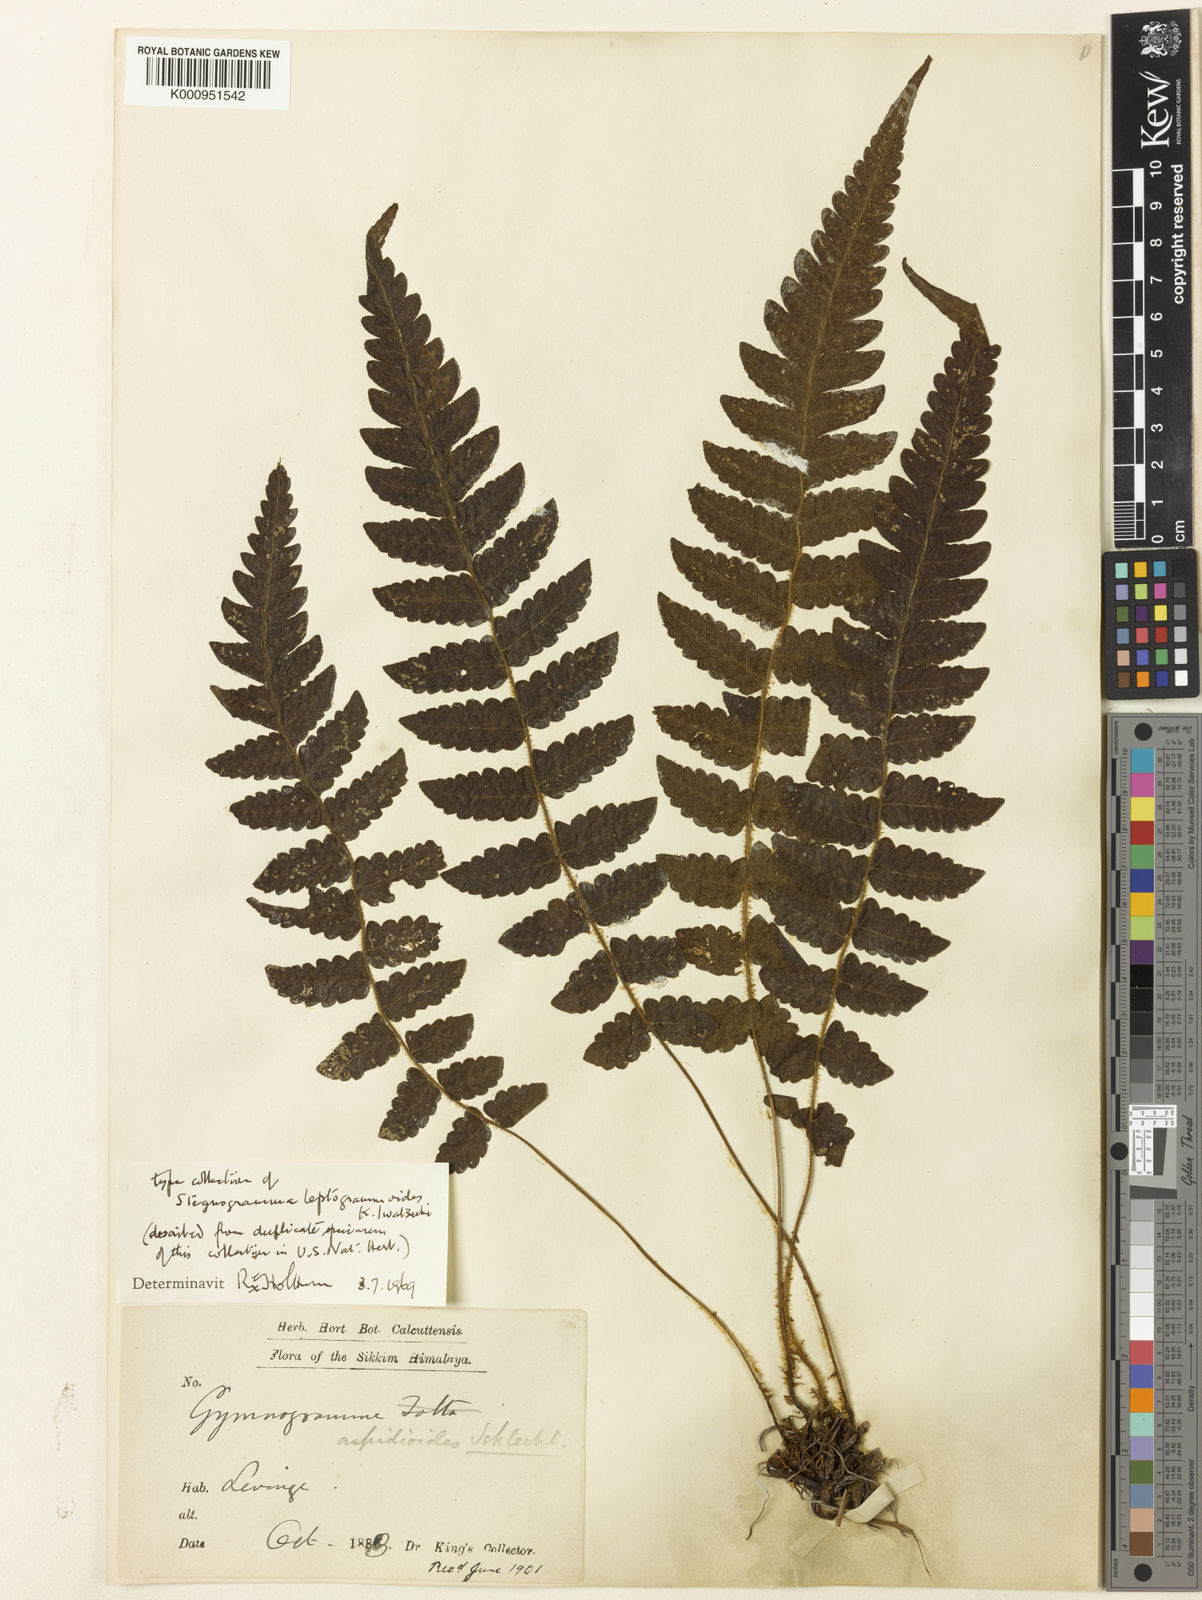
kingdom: Plantae
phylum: Tracheophyta
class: Polypodiopsida
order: Polypodiales
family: Thelypteridaceae
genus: Leptogramma
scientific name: Leptogramma leptogrammoides
